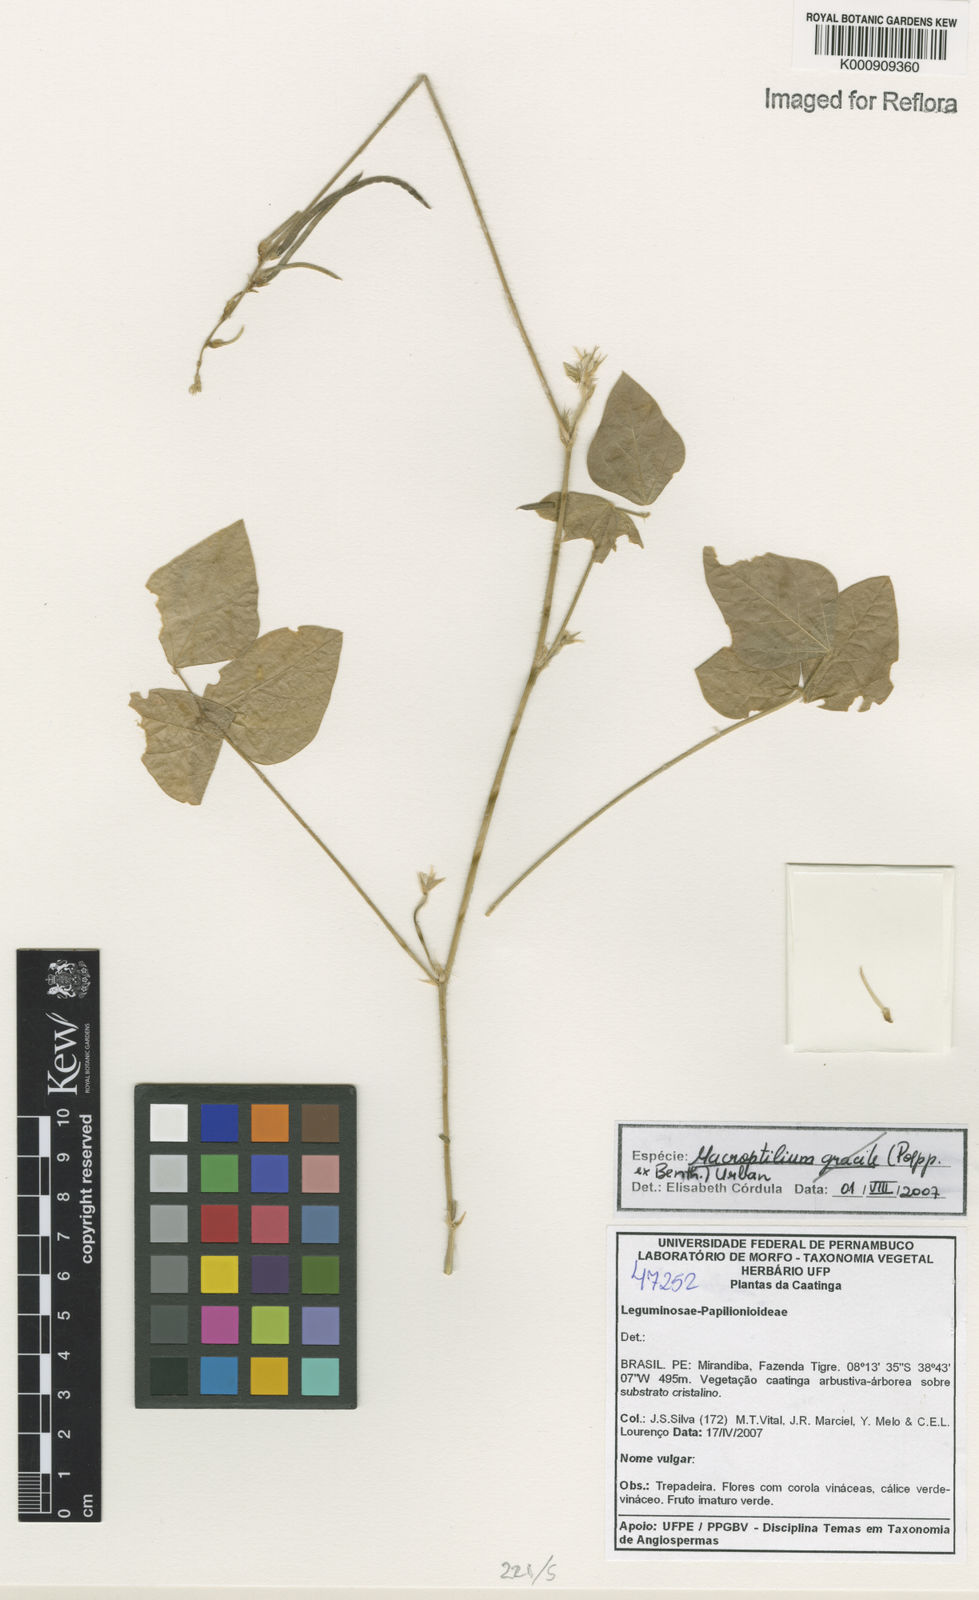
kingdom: Plantae
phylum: Tracheophyta
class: Magnoliopsida
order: Fabales
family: Fabaceae
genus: Macroptilium
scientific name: Macroptilium
